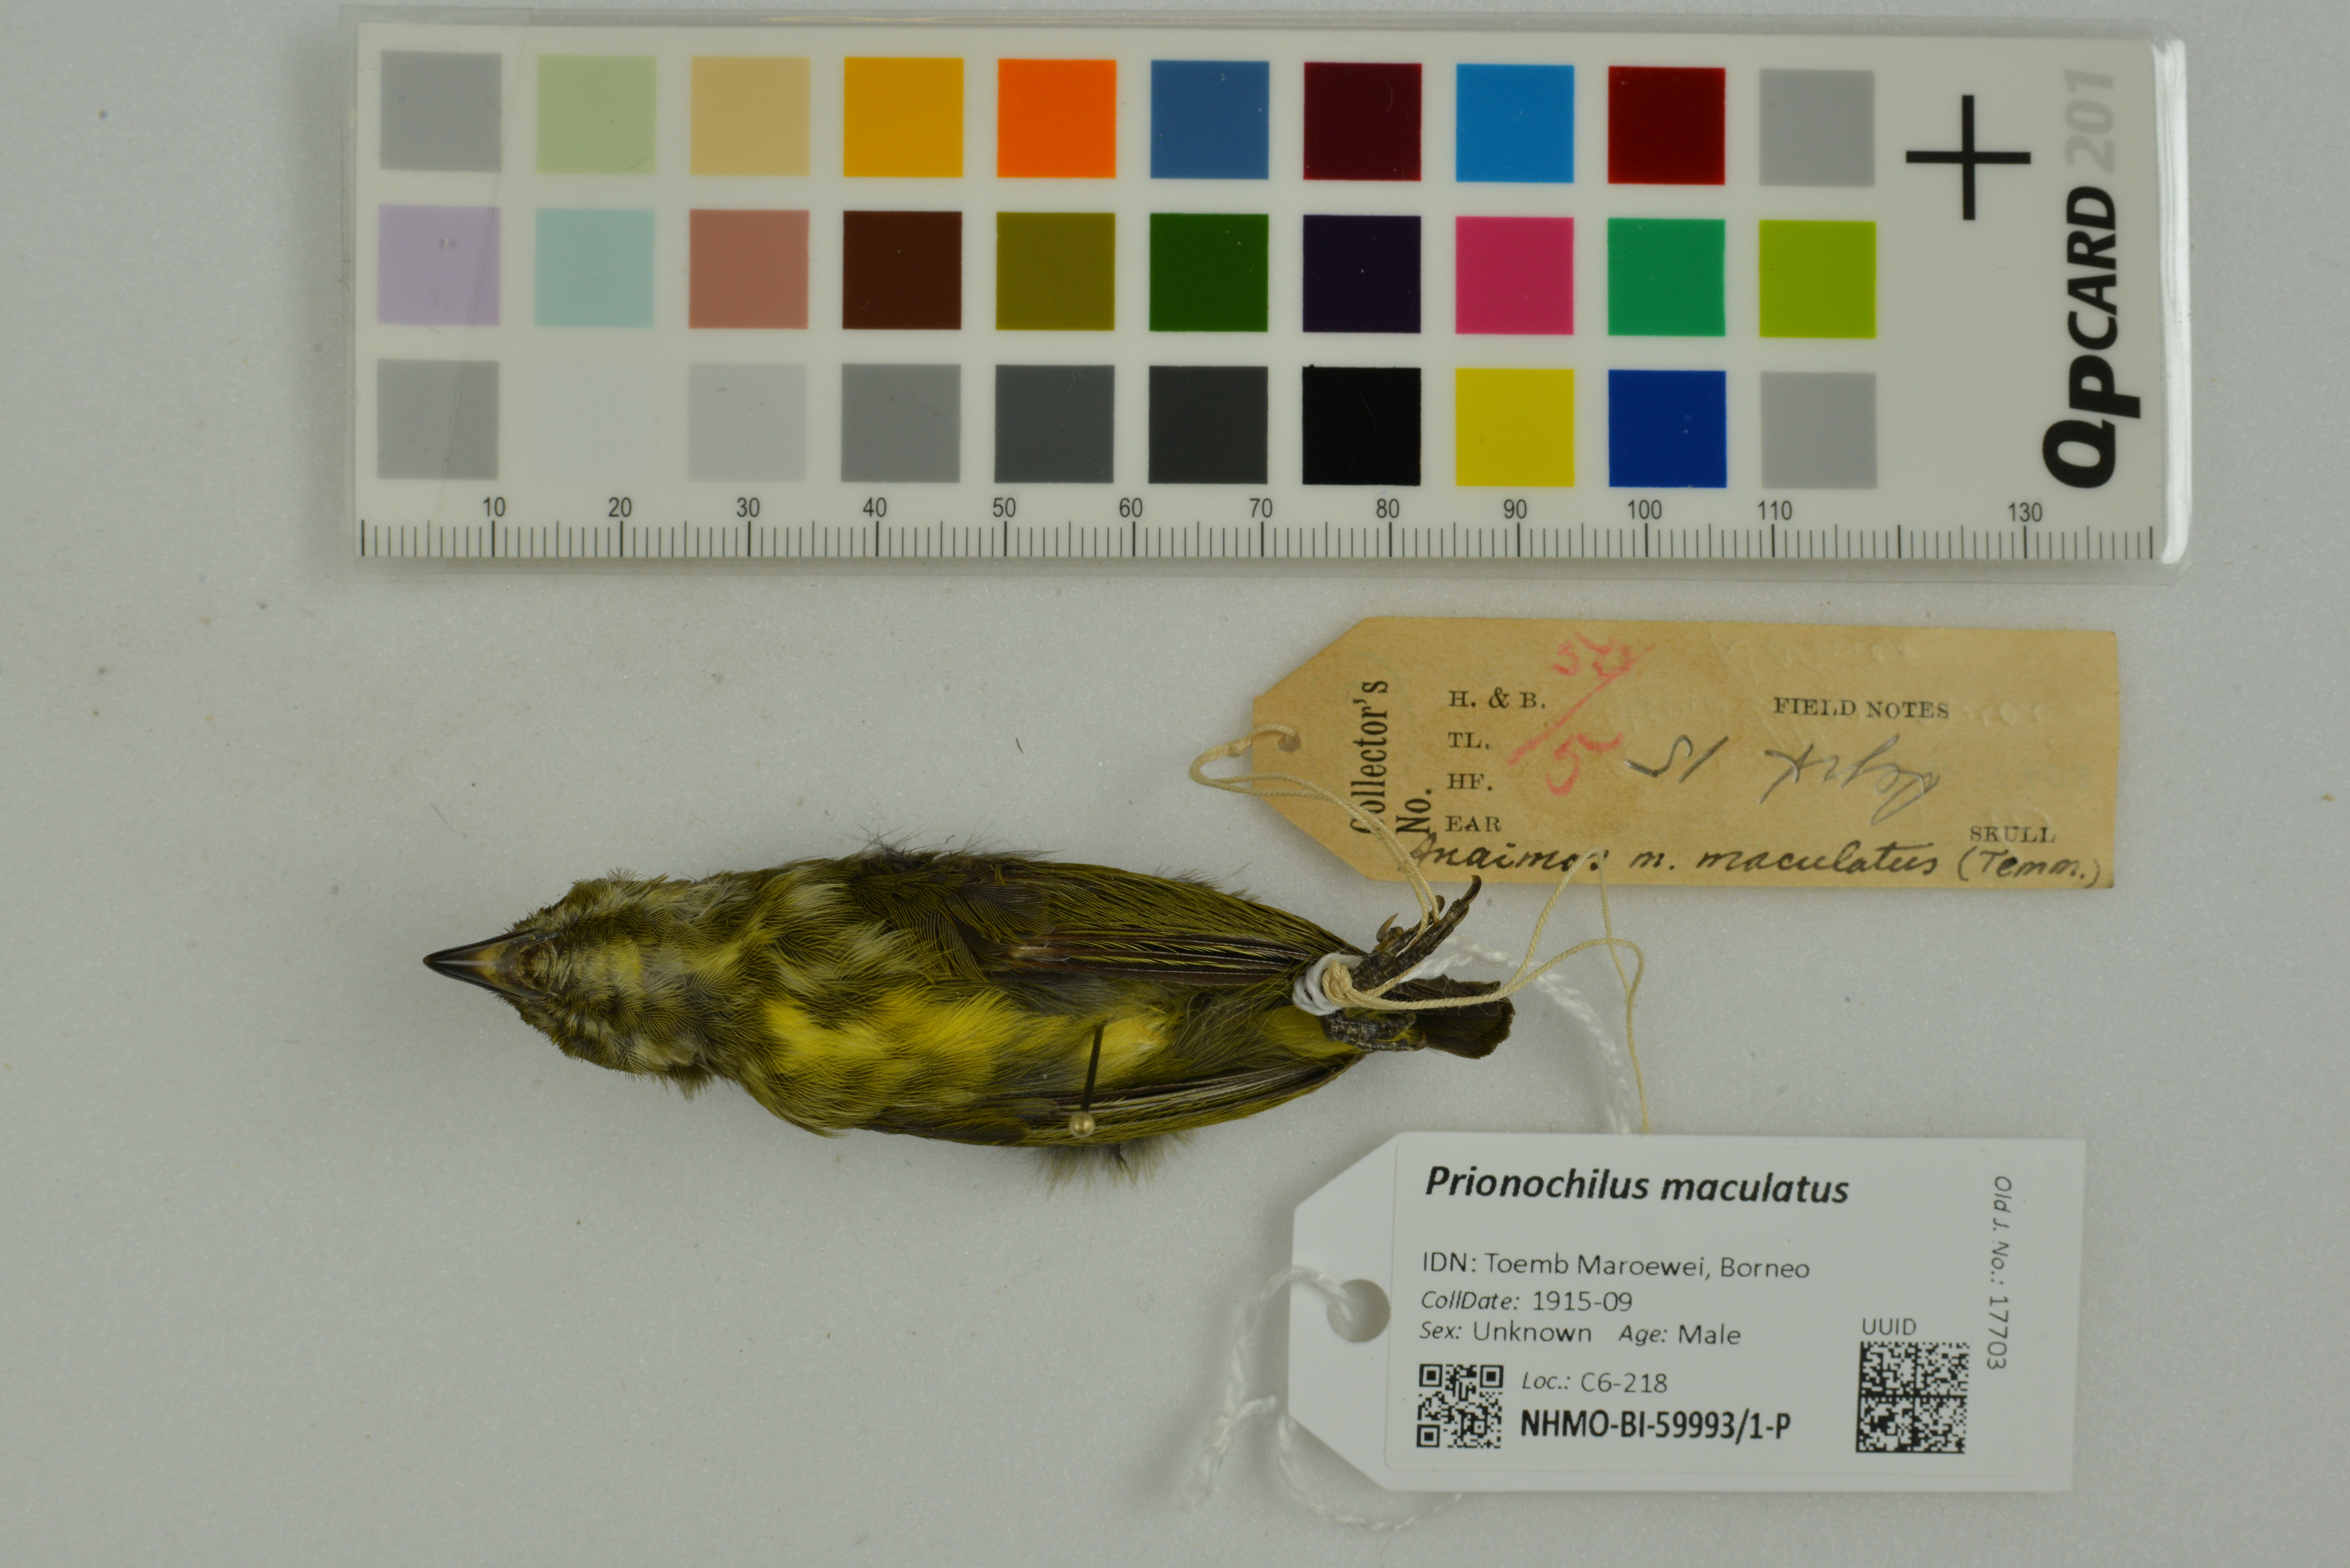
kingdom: Animalia
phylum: Chordata
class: Aves
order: Passeriformes
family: Dicaeidae
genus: Prionochilus
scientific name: Prionochilus maculatus
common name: Yellow-breasted flowerpecker
